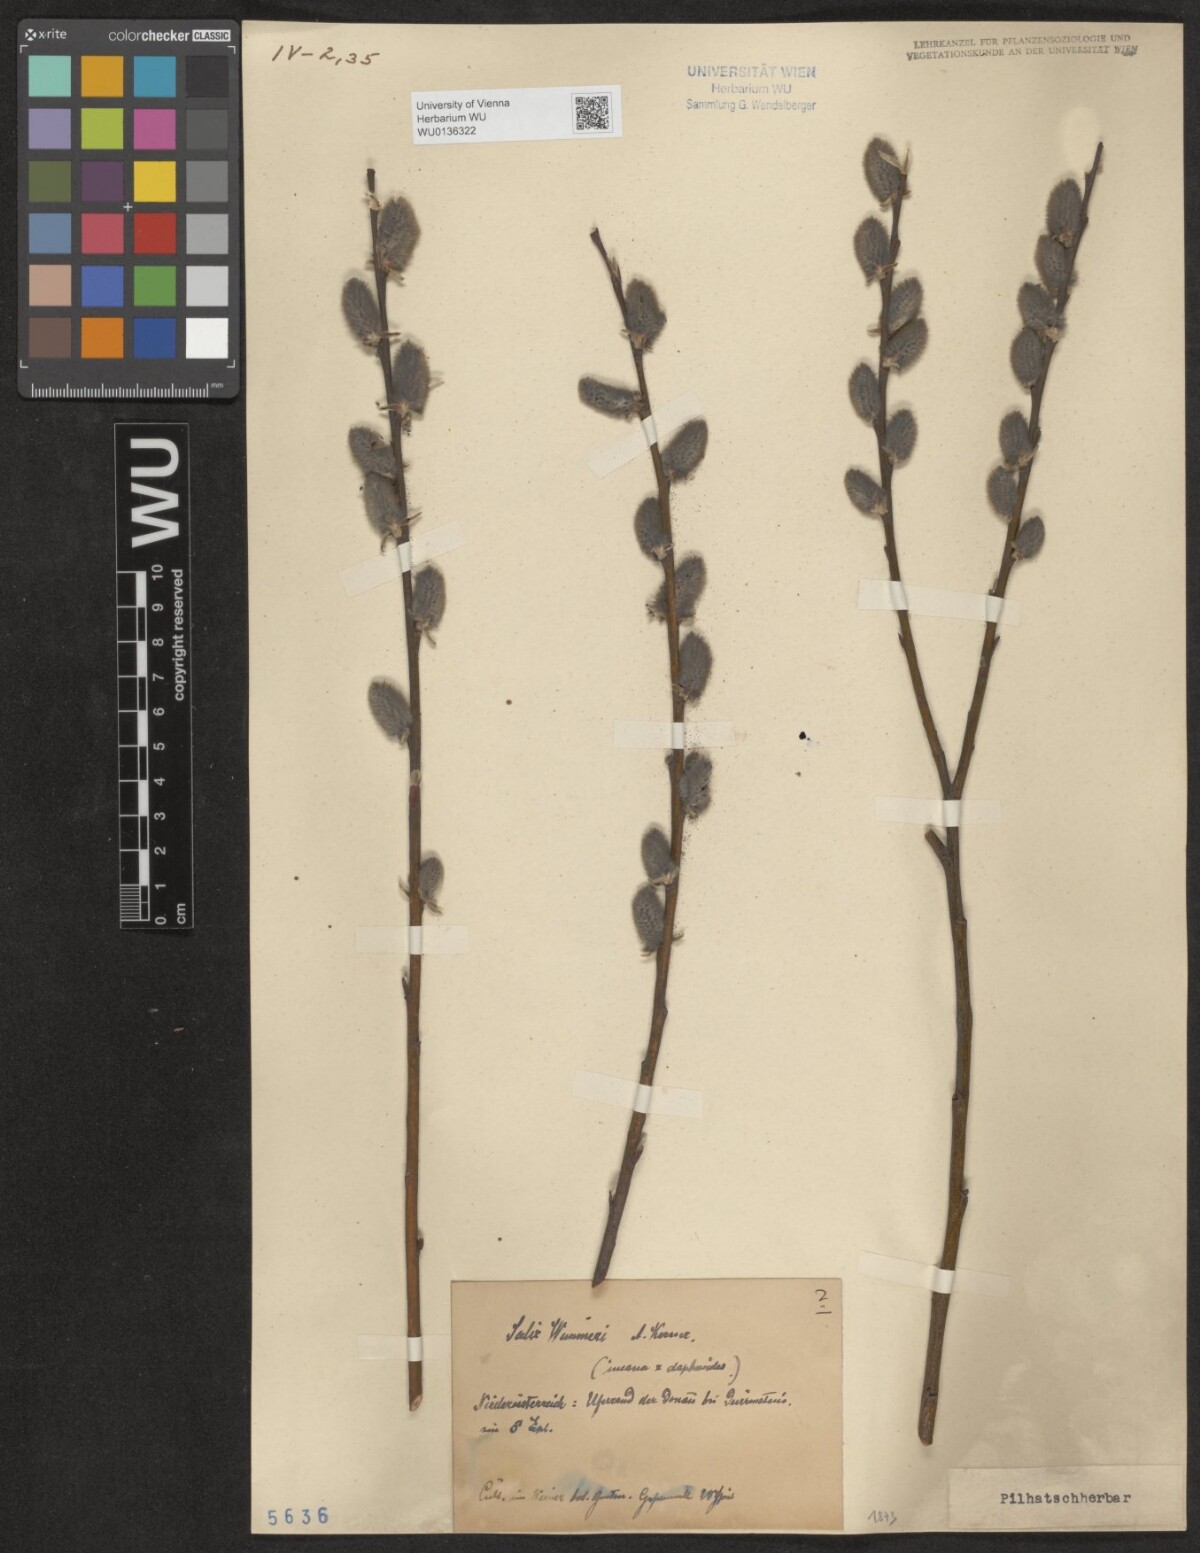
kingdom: Plantae
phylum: Tracheophyta
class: Magnoliopsida
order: Malpighiales
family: Salicaceae
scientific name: Salicaceae
